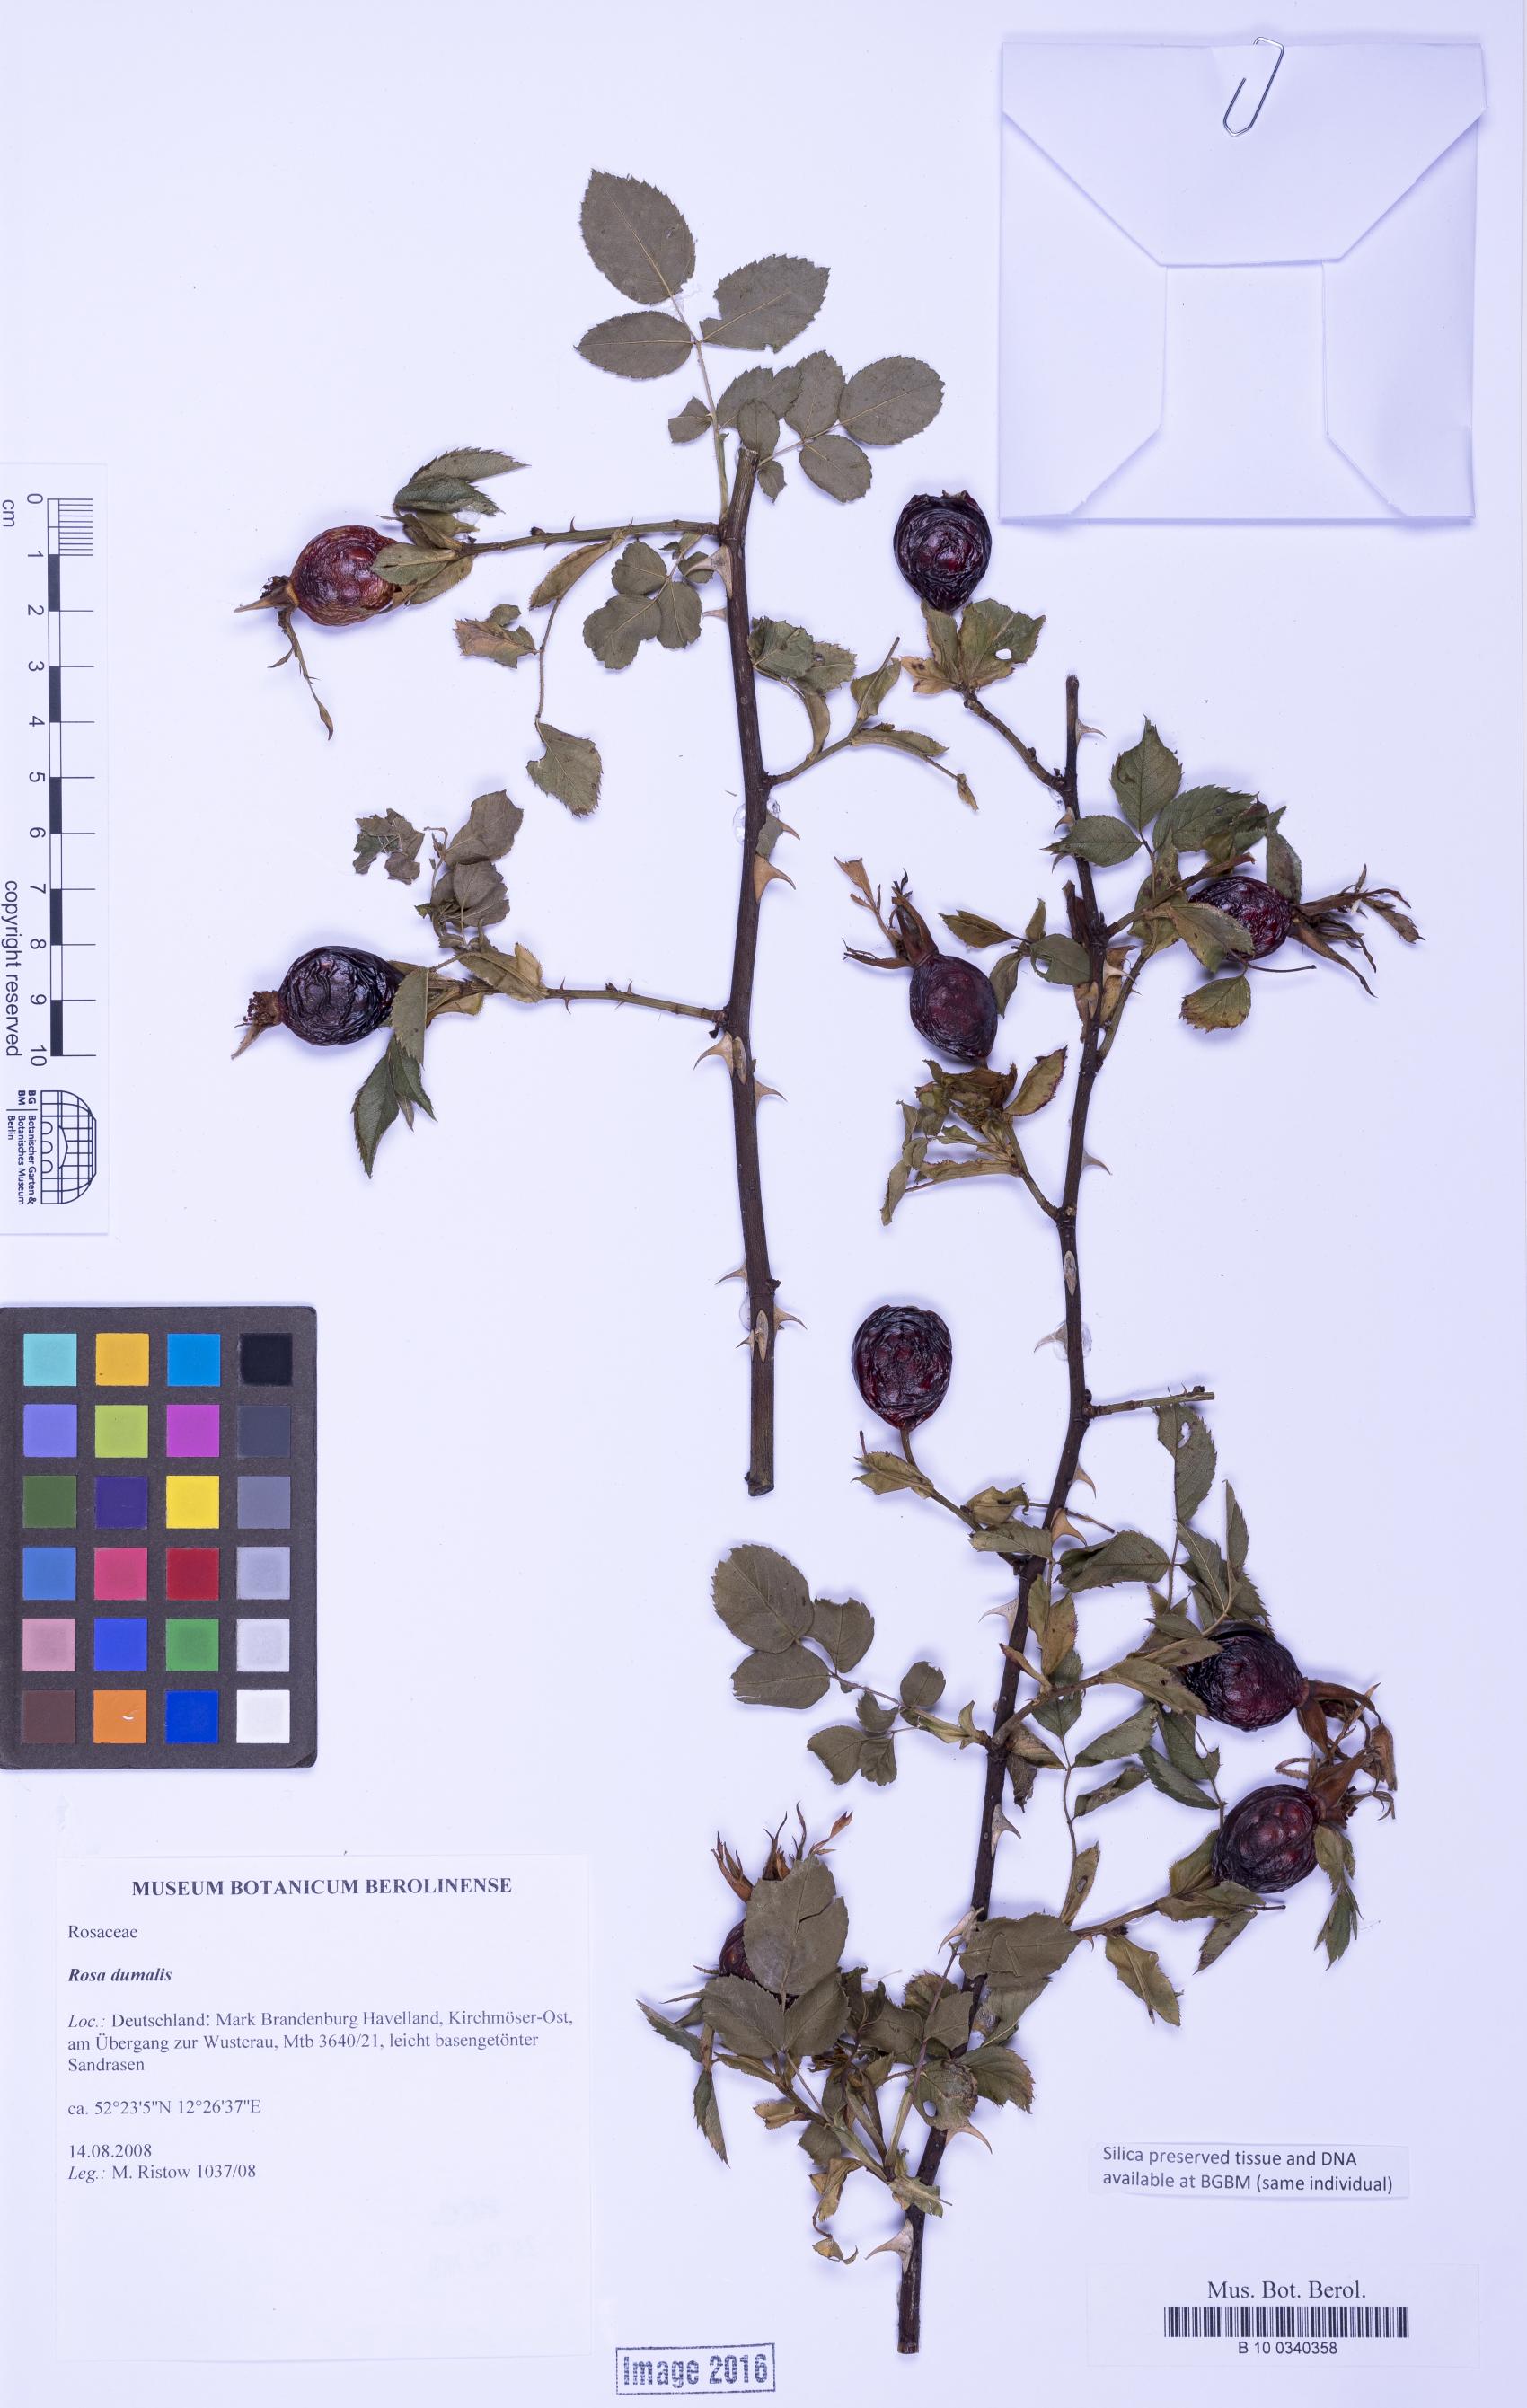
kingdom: Plantae
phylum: Tracheophyta
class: Magnoliopsida
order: Rosales
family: Rosaceae
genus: Rosa
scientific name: Rosa dumalis
